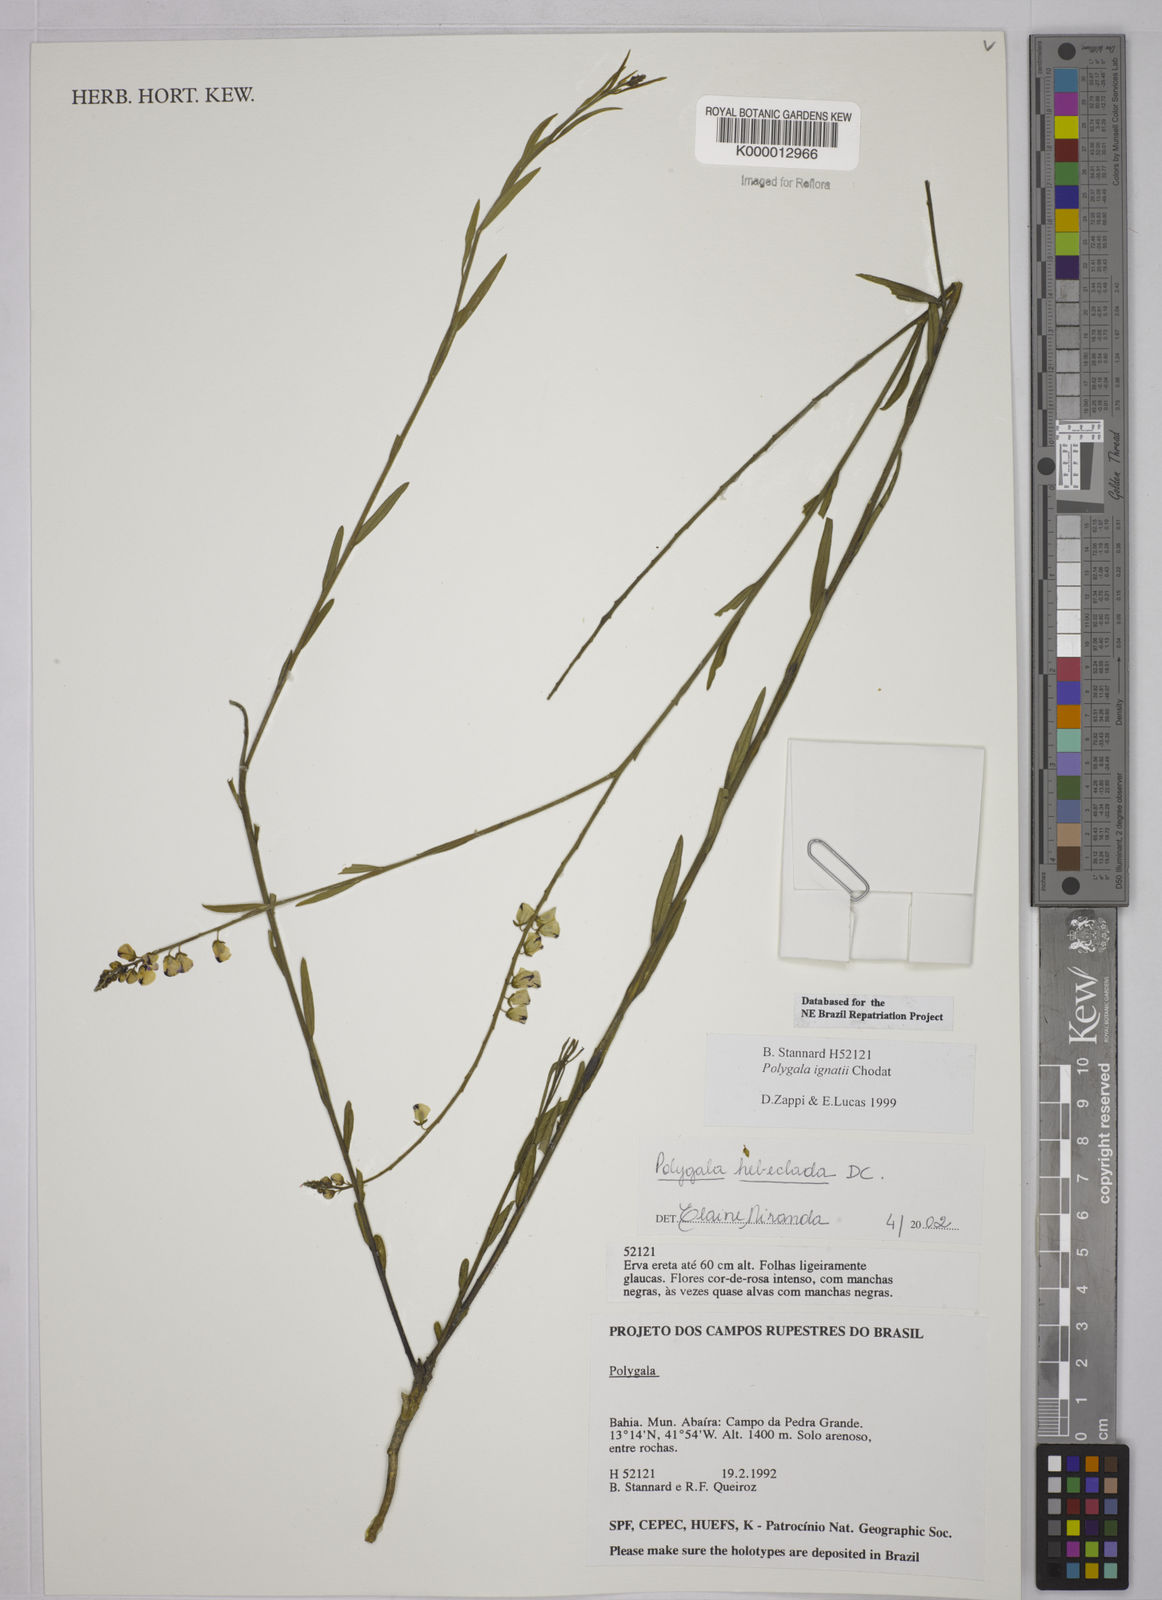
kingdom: Plantae
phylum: Tracheophyta
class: Magnoliopsida
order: Fabales
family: Polygalaceae
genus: Asemeia
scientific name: Asemeia hebeclada
